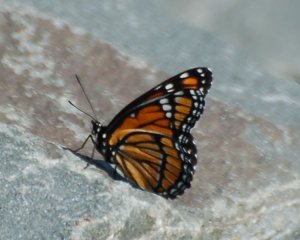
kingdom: Animalia
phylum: Arthropoda
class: Insecta
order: Lepidoptera
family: Nymphalidae
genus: Limenitis
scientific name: Limenitis archippus
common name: Viceroy
